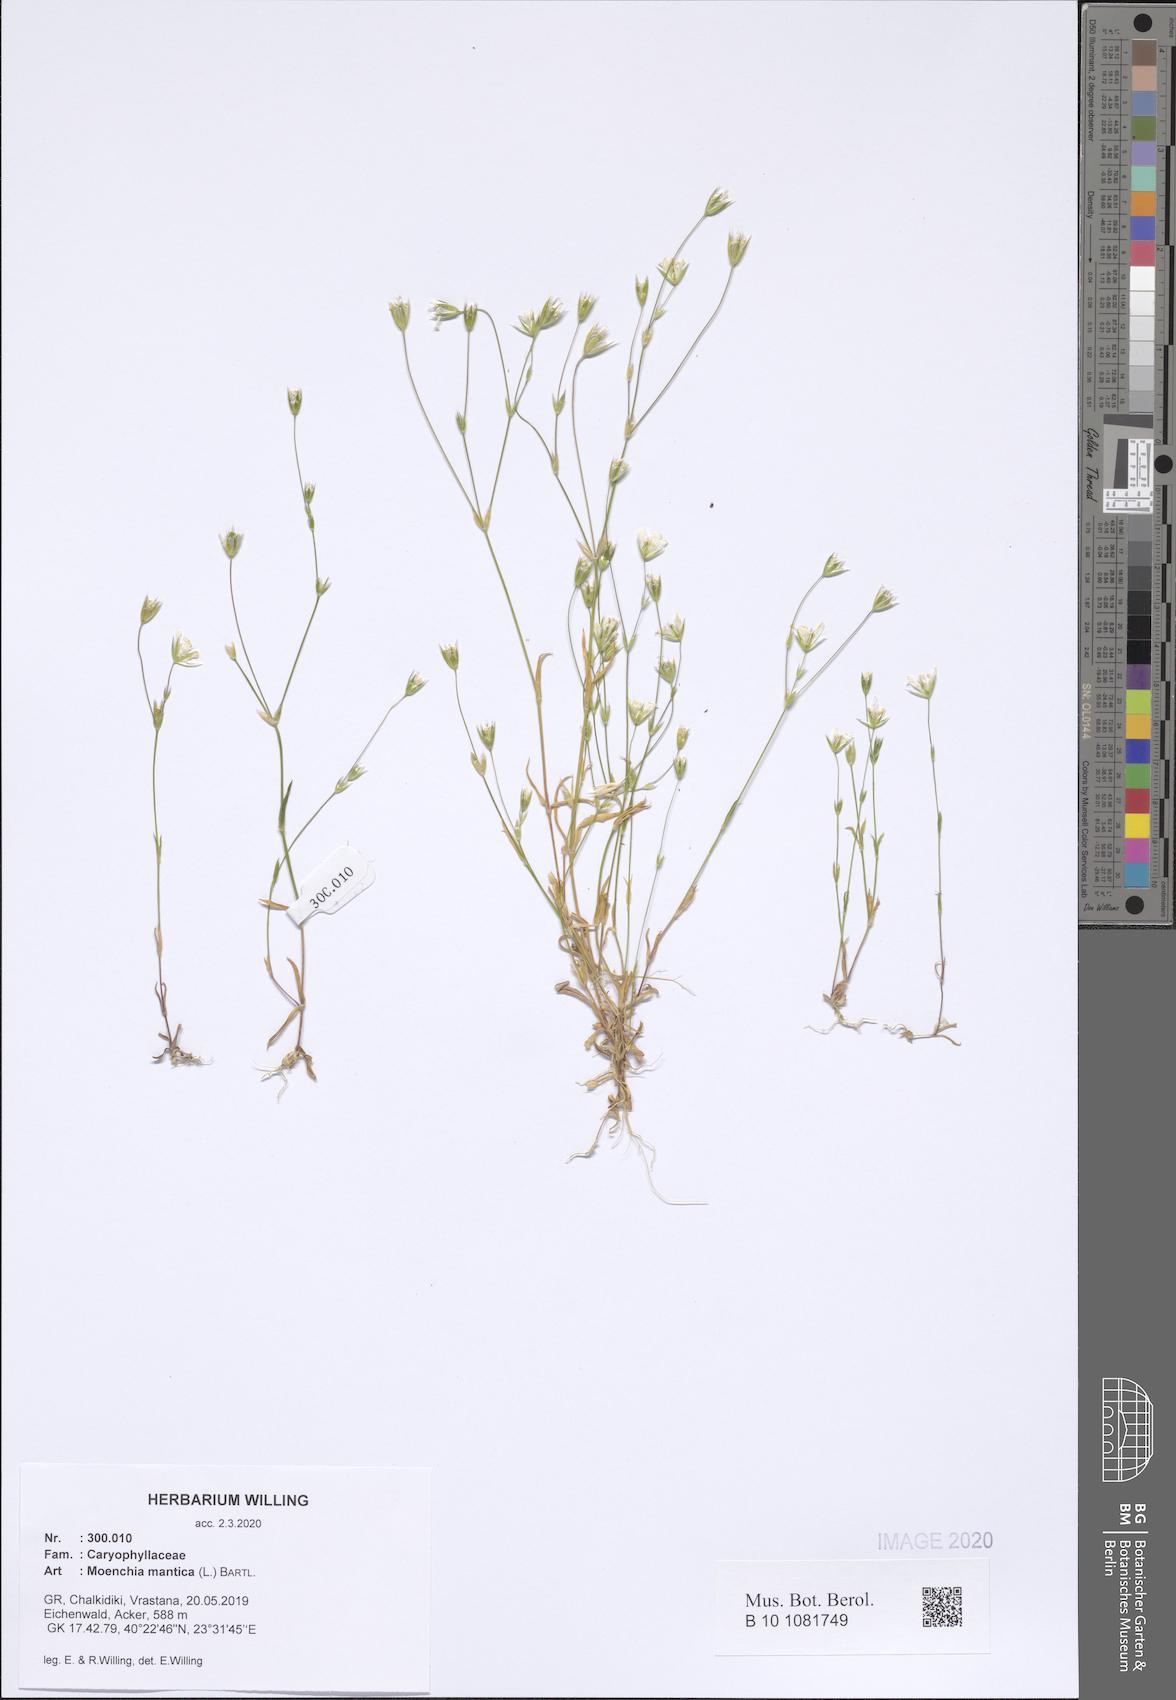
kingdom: Plantae
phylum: Tracheophyta
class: Magnoliopsida
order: Caryophyllales
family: Caryophyllaceae
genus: Moenchia
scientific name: Moenchia mantica
